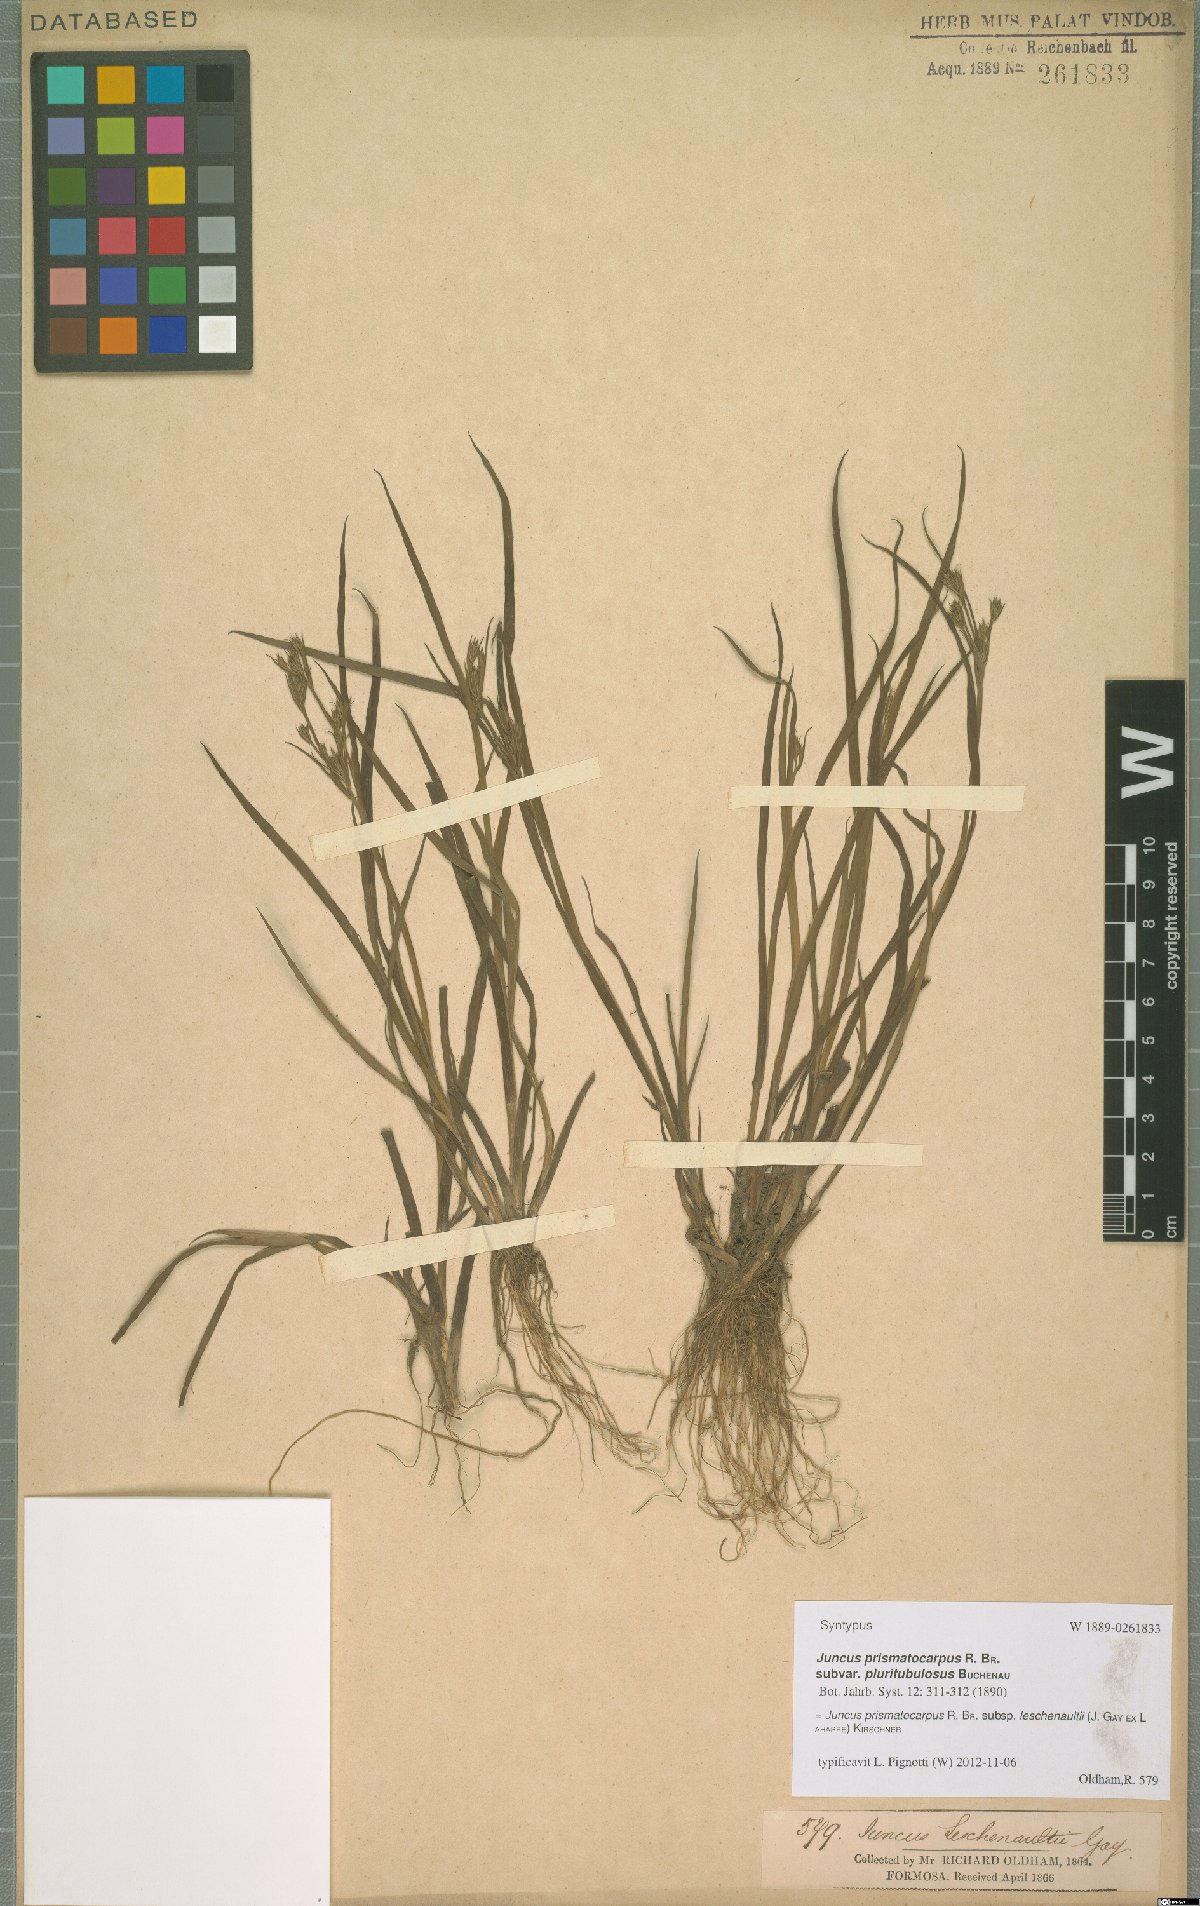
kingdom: Plantae
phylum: Tracheophyta
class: Liliopsida
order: Poales
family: Juncaceae
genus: Juncus
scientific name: Juncus prismatocarpus
